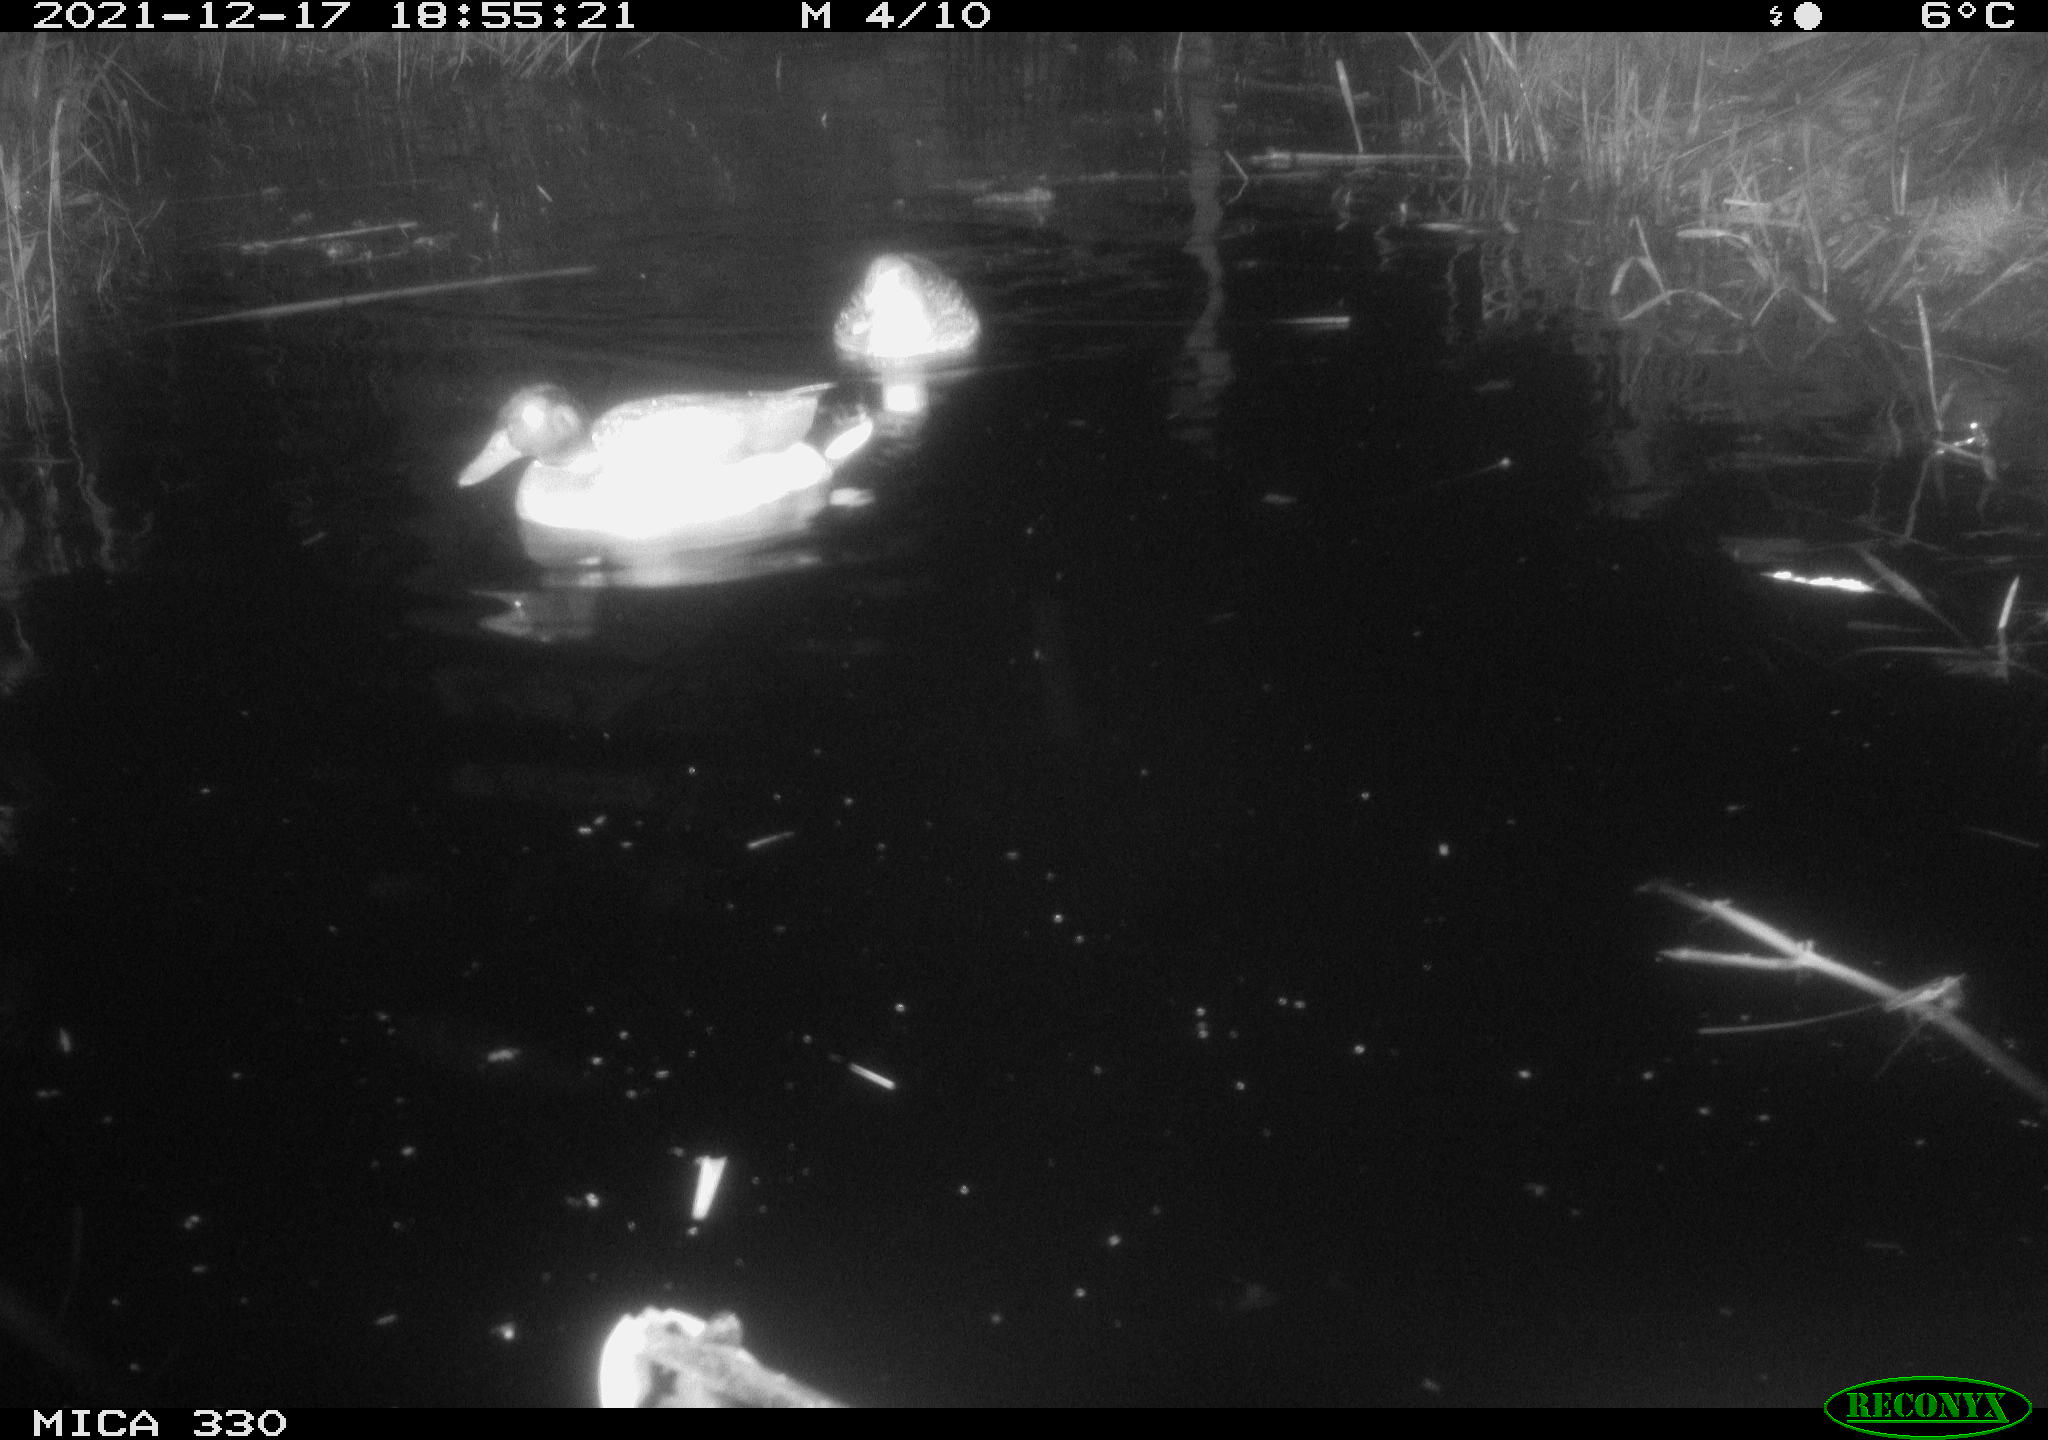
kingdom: Animalia
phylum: Chordata
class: Aves
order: Anseriformes
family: Anatidae
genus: Anas
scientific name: Anas platyrhynchos
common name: Mallard
